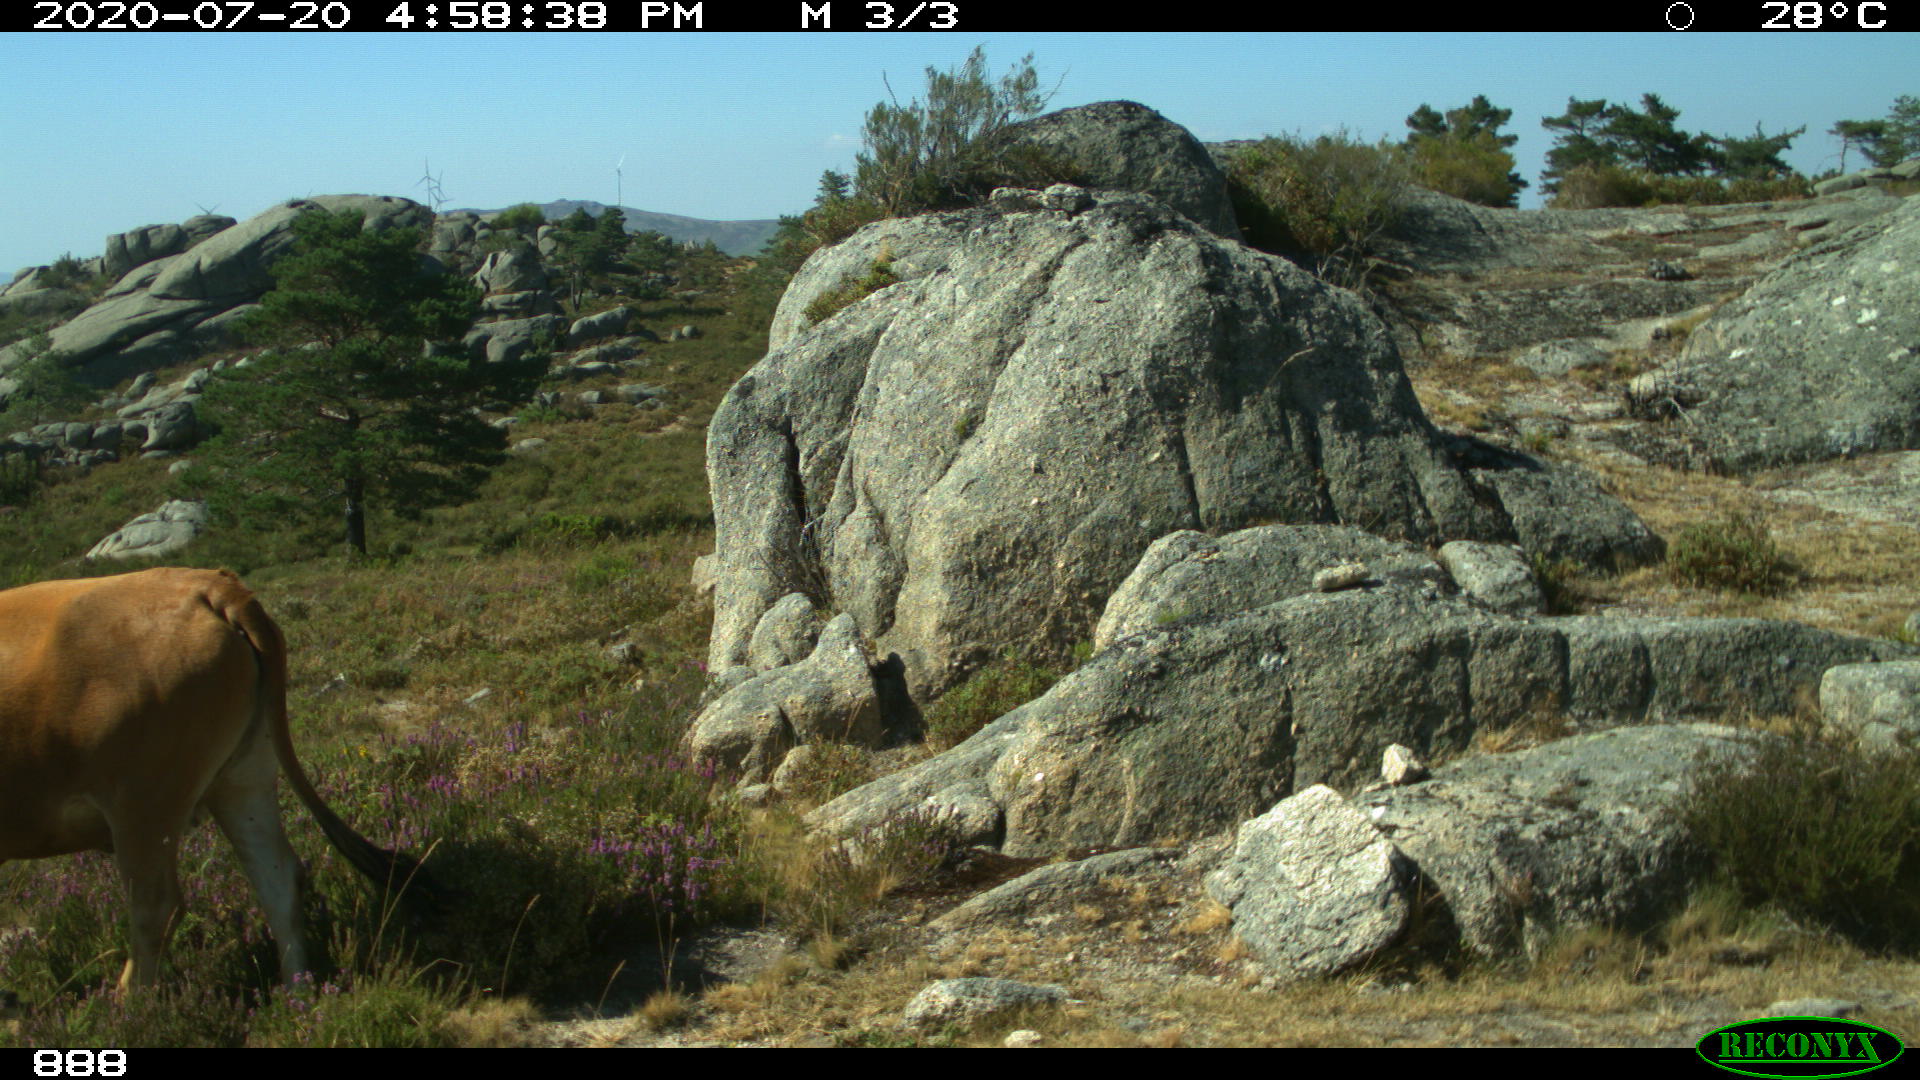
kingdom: Animalia
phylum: Chordata
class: Mammalia
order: Artiodactyla
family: Bovidae
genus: Bos
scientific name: Bos taurus
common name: Domesticated cattle
